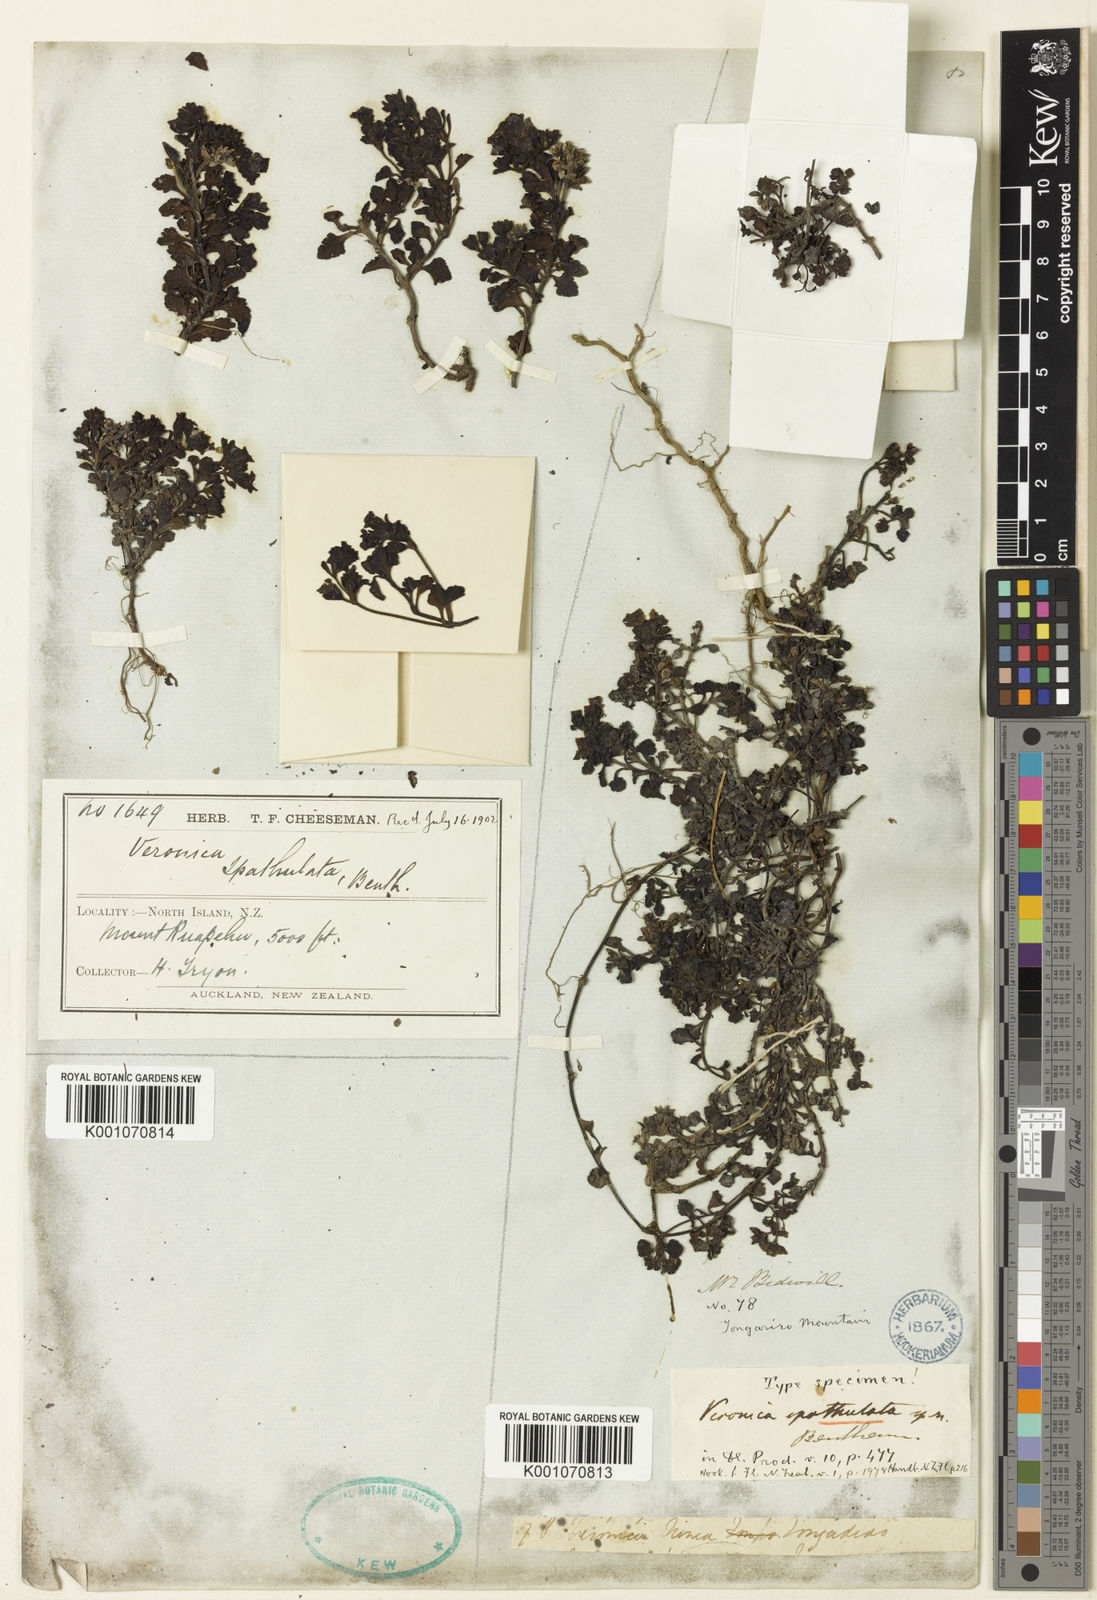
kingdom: Plantae
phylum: Tracheophyta
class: Magnoliopsida
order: Lamiales
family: Plantaginaceae
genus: Veronica
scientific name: Veronica spathulata
